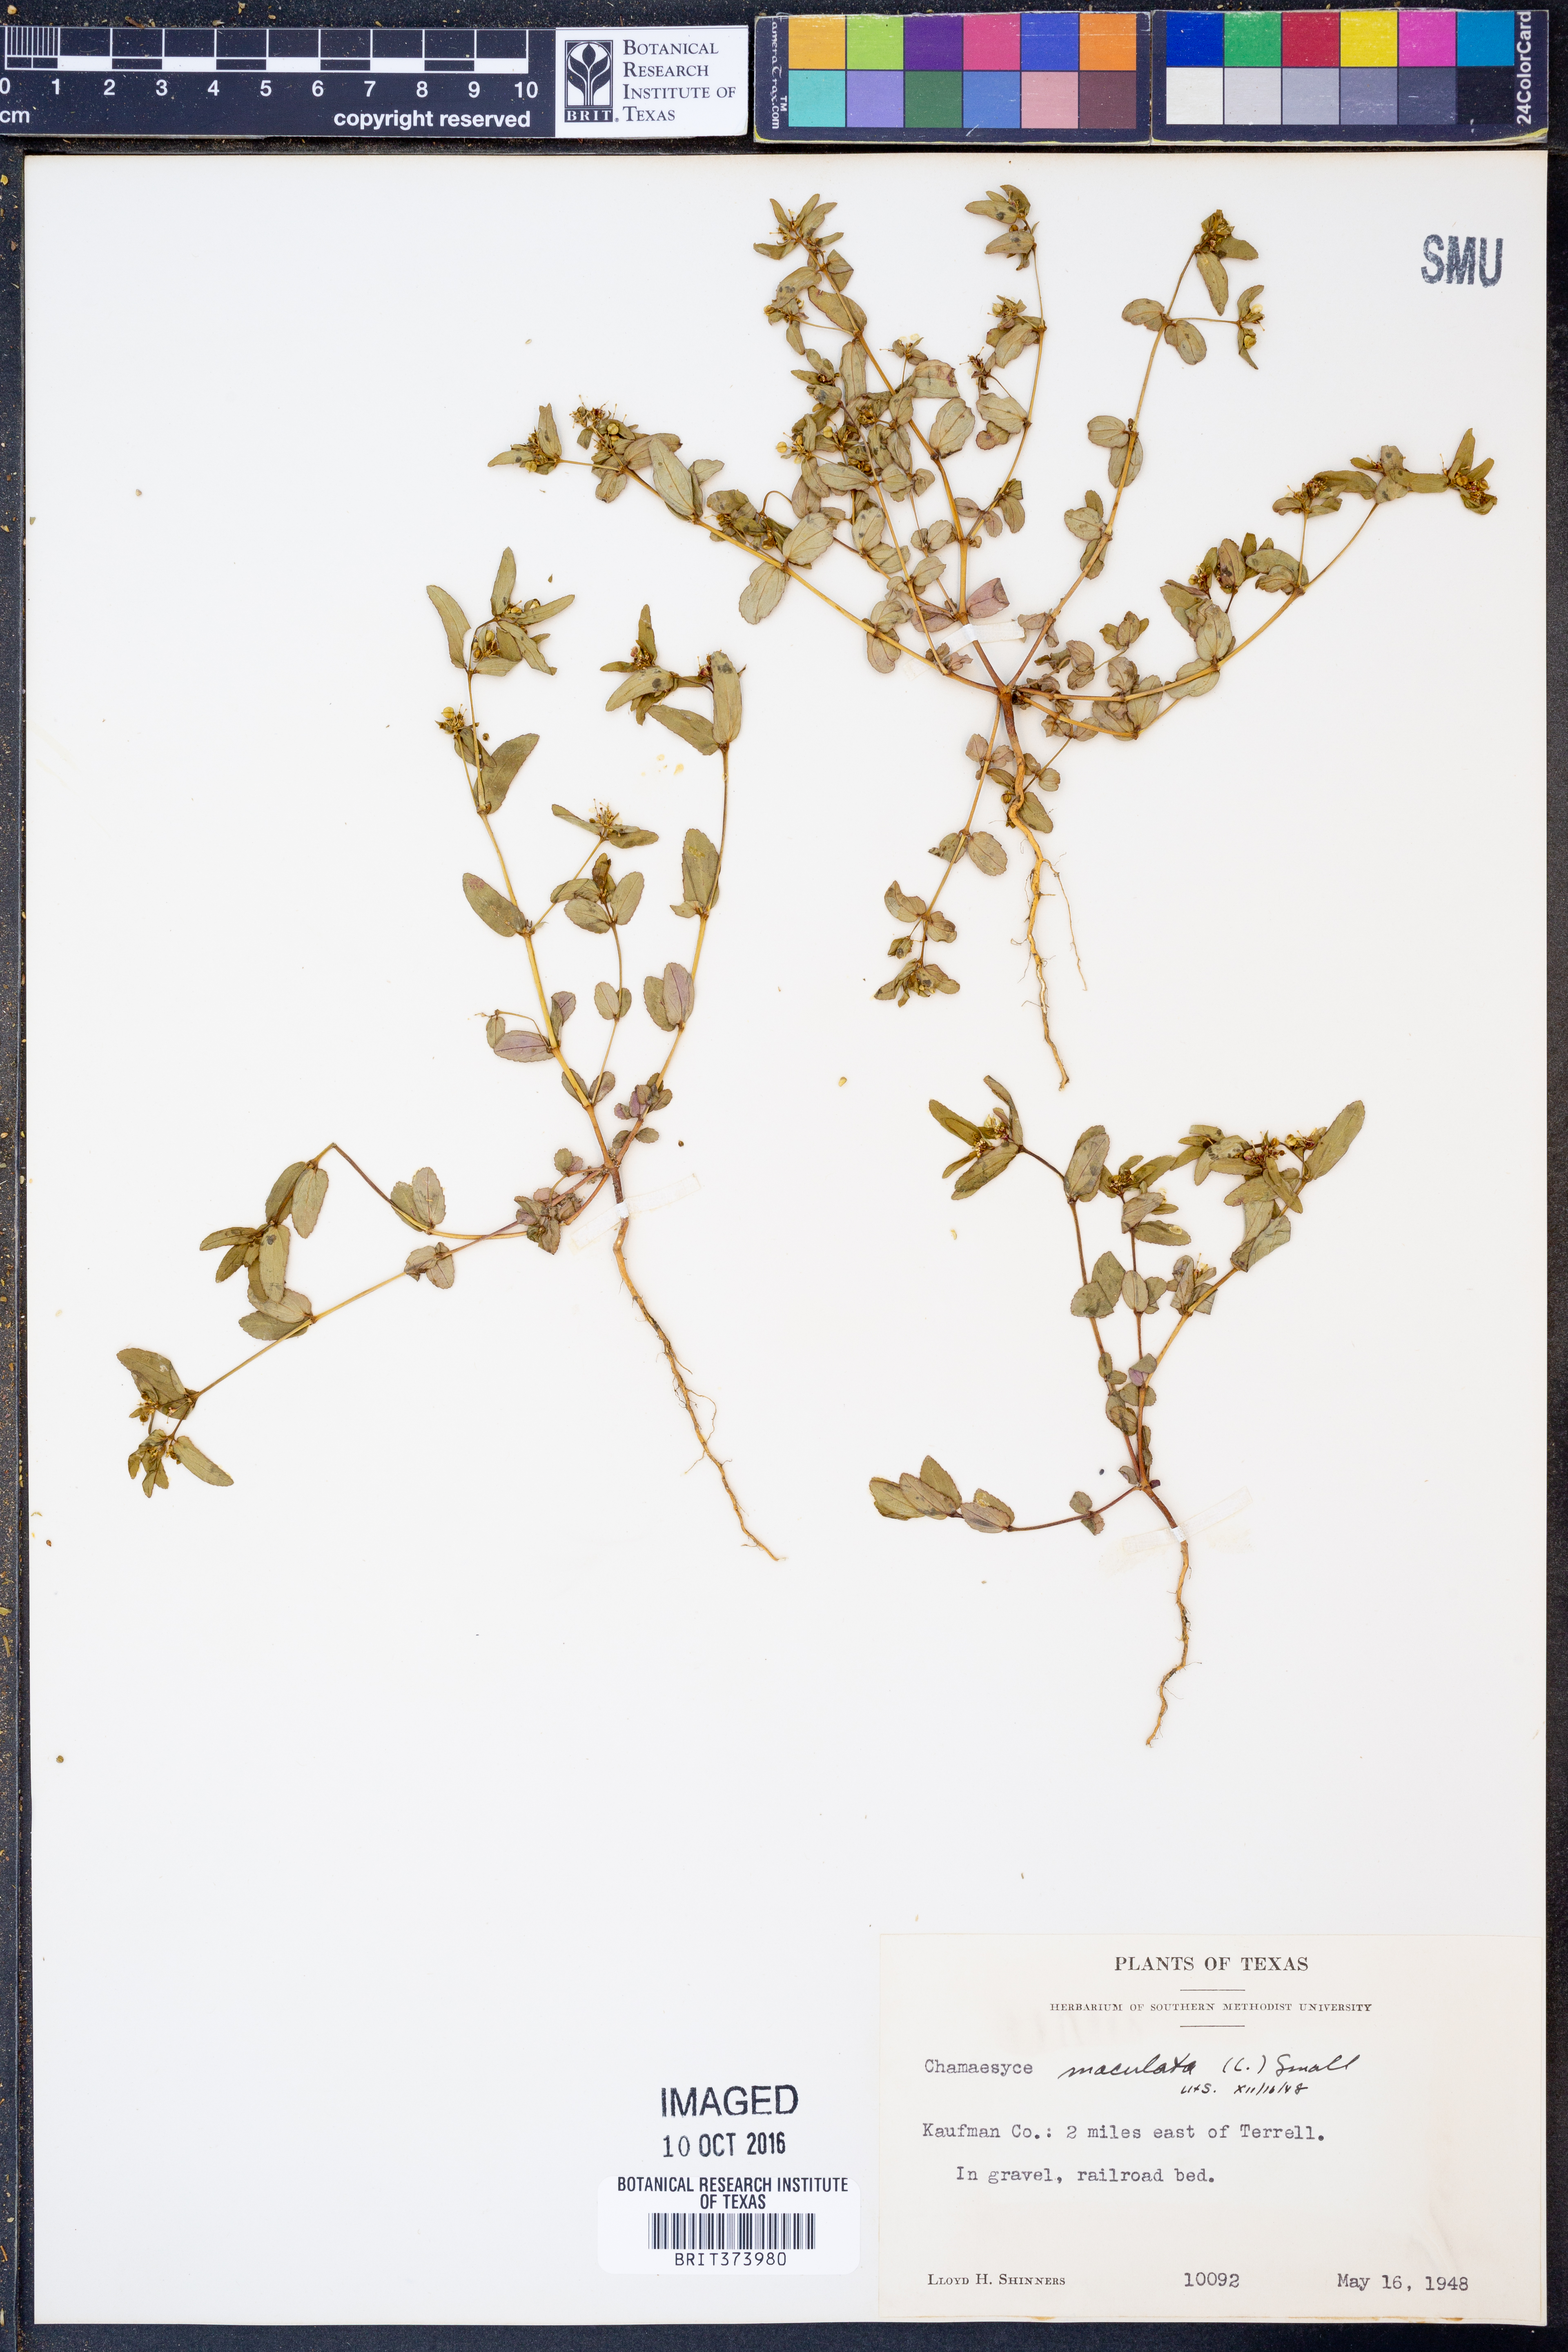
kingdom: Plantae
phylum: Tracheophyta
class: Magnoliopsida
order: Malpighiales
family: Euphorbiaceae
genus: Euphorbia
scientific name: Euphorbia maculata
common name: Spotted spurge
